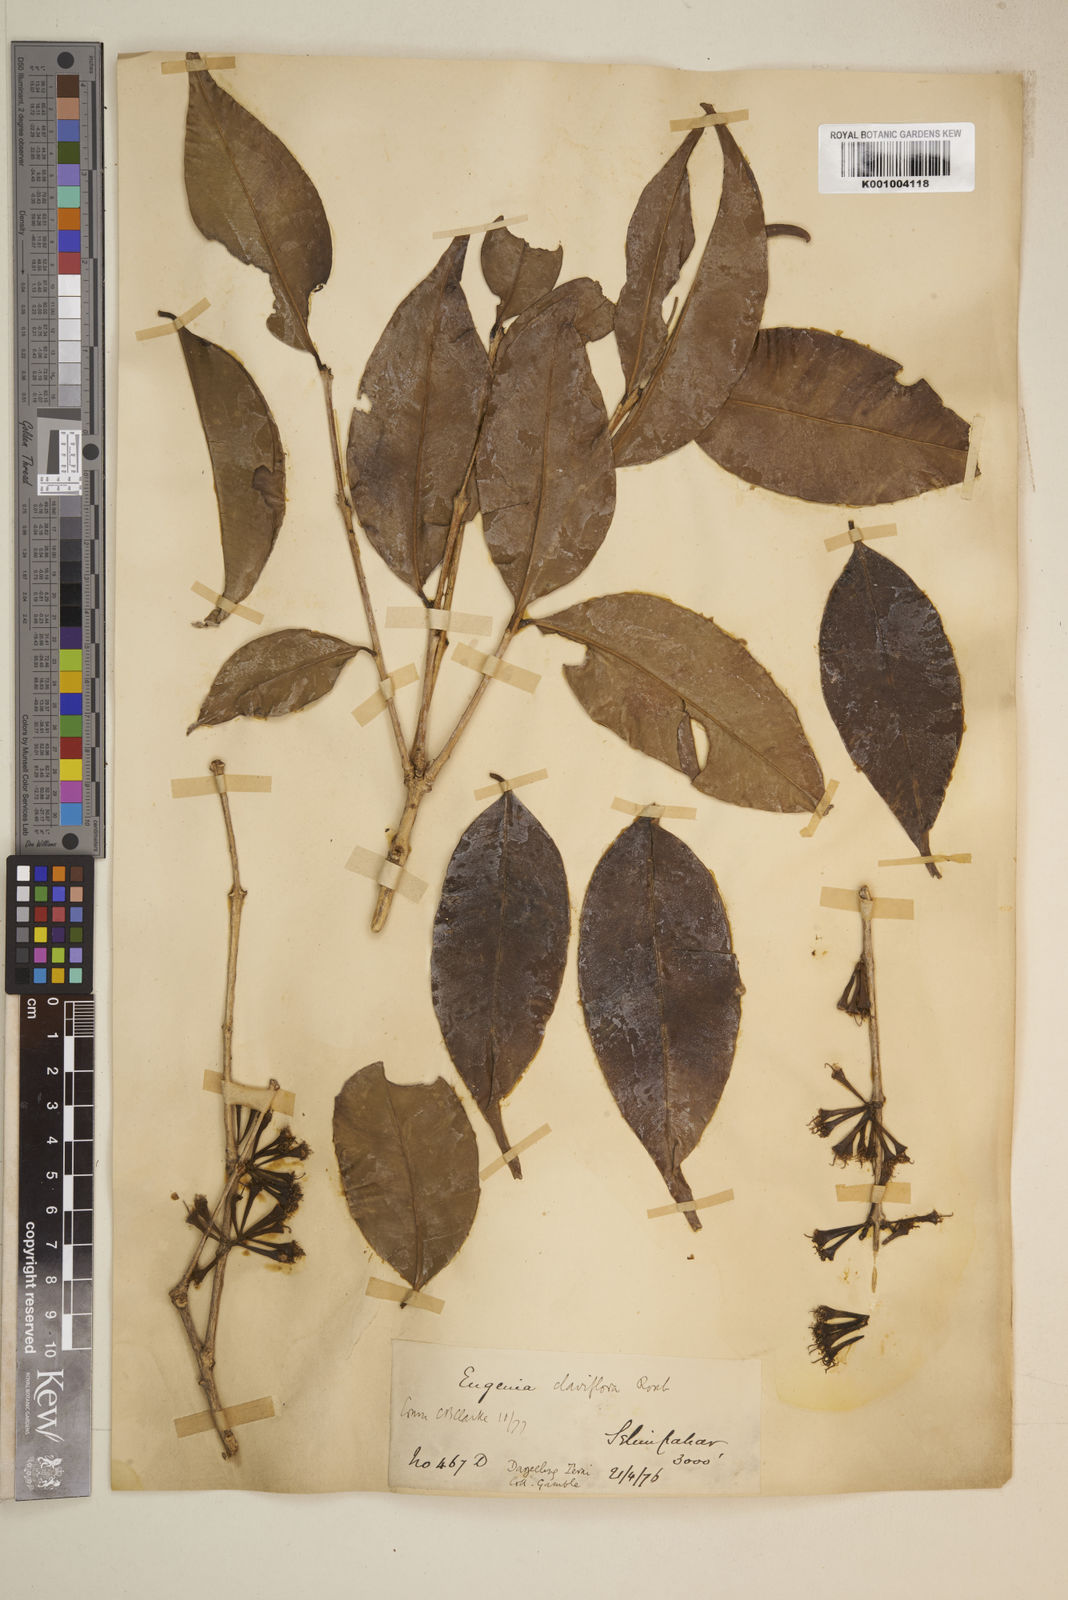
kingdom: Plantae
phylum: Tracheophyta
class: Magnoliopsida
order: Myrtales
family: Myrtaceae
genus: Syzygium
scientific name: Syzygium claviflorum
